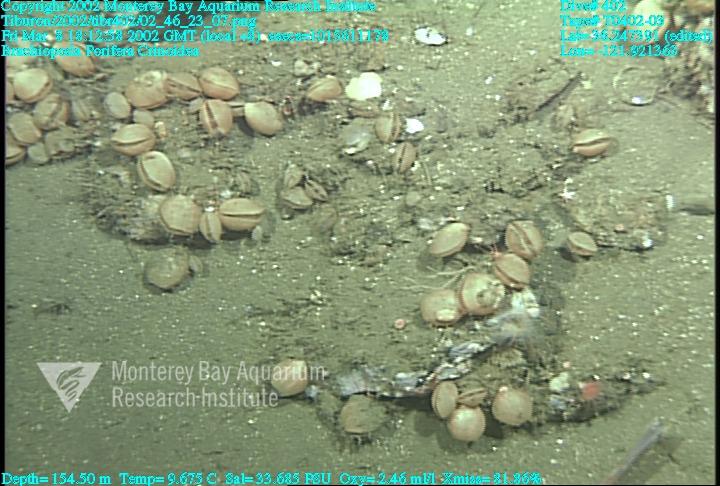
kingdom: Animalia
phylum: Porifera
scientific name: Porifera
